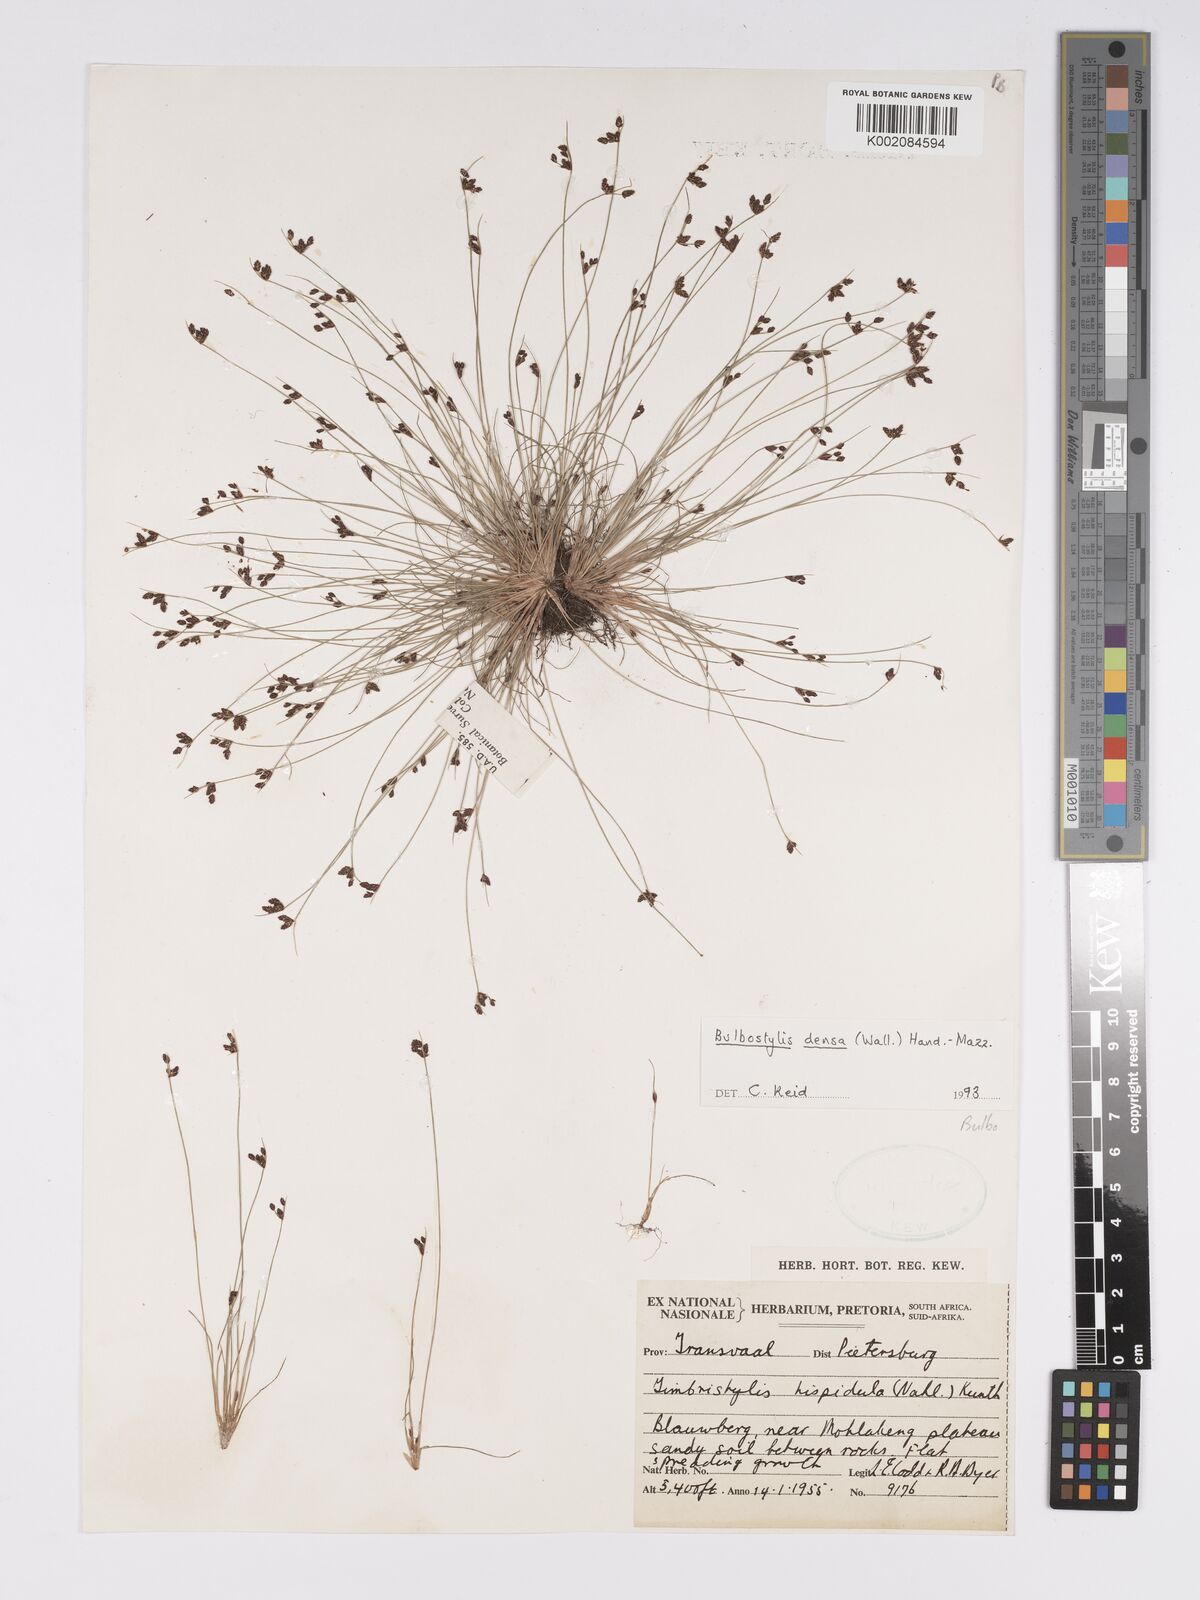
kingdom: Plantae
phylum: Tracheophyta
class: Liliopsida
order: Poales
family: Cyperaceae
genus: Bulbostylis
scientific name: Bulbostylis densa
